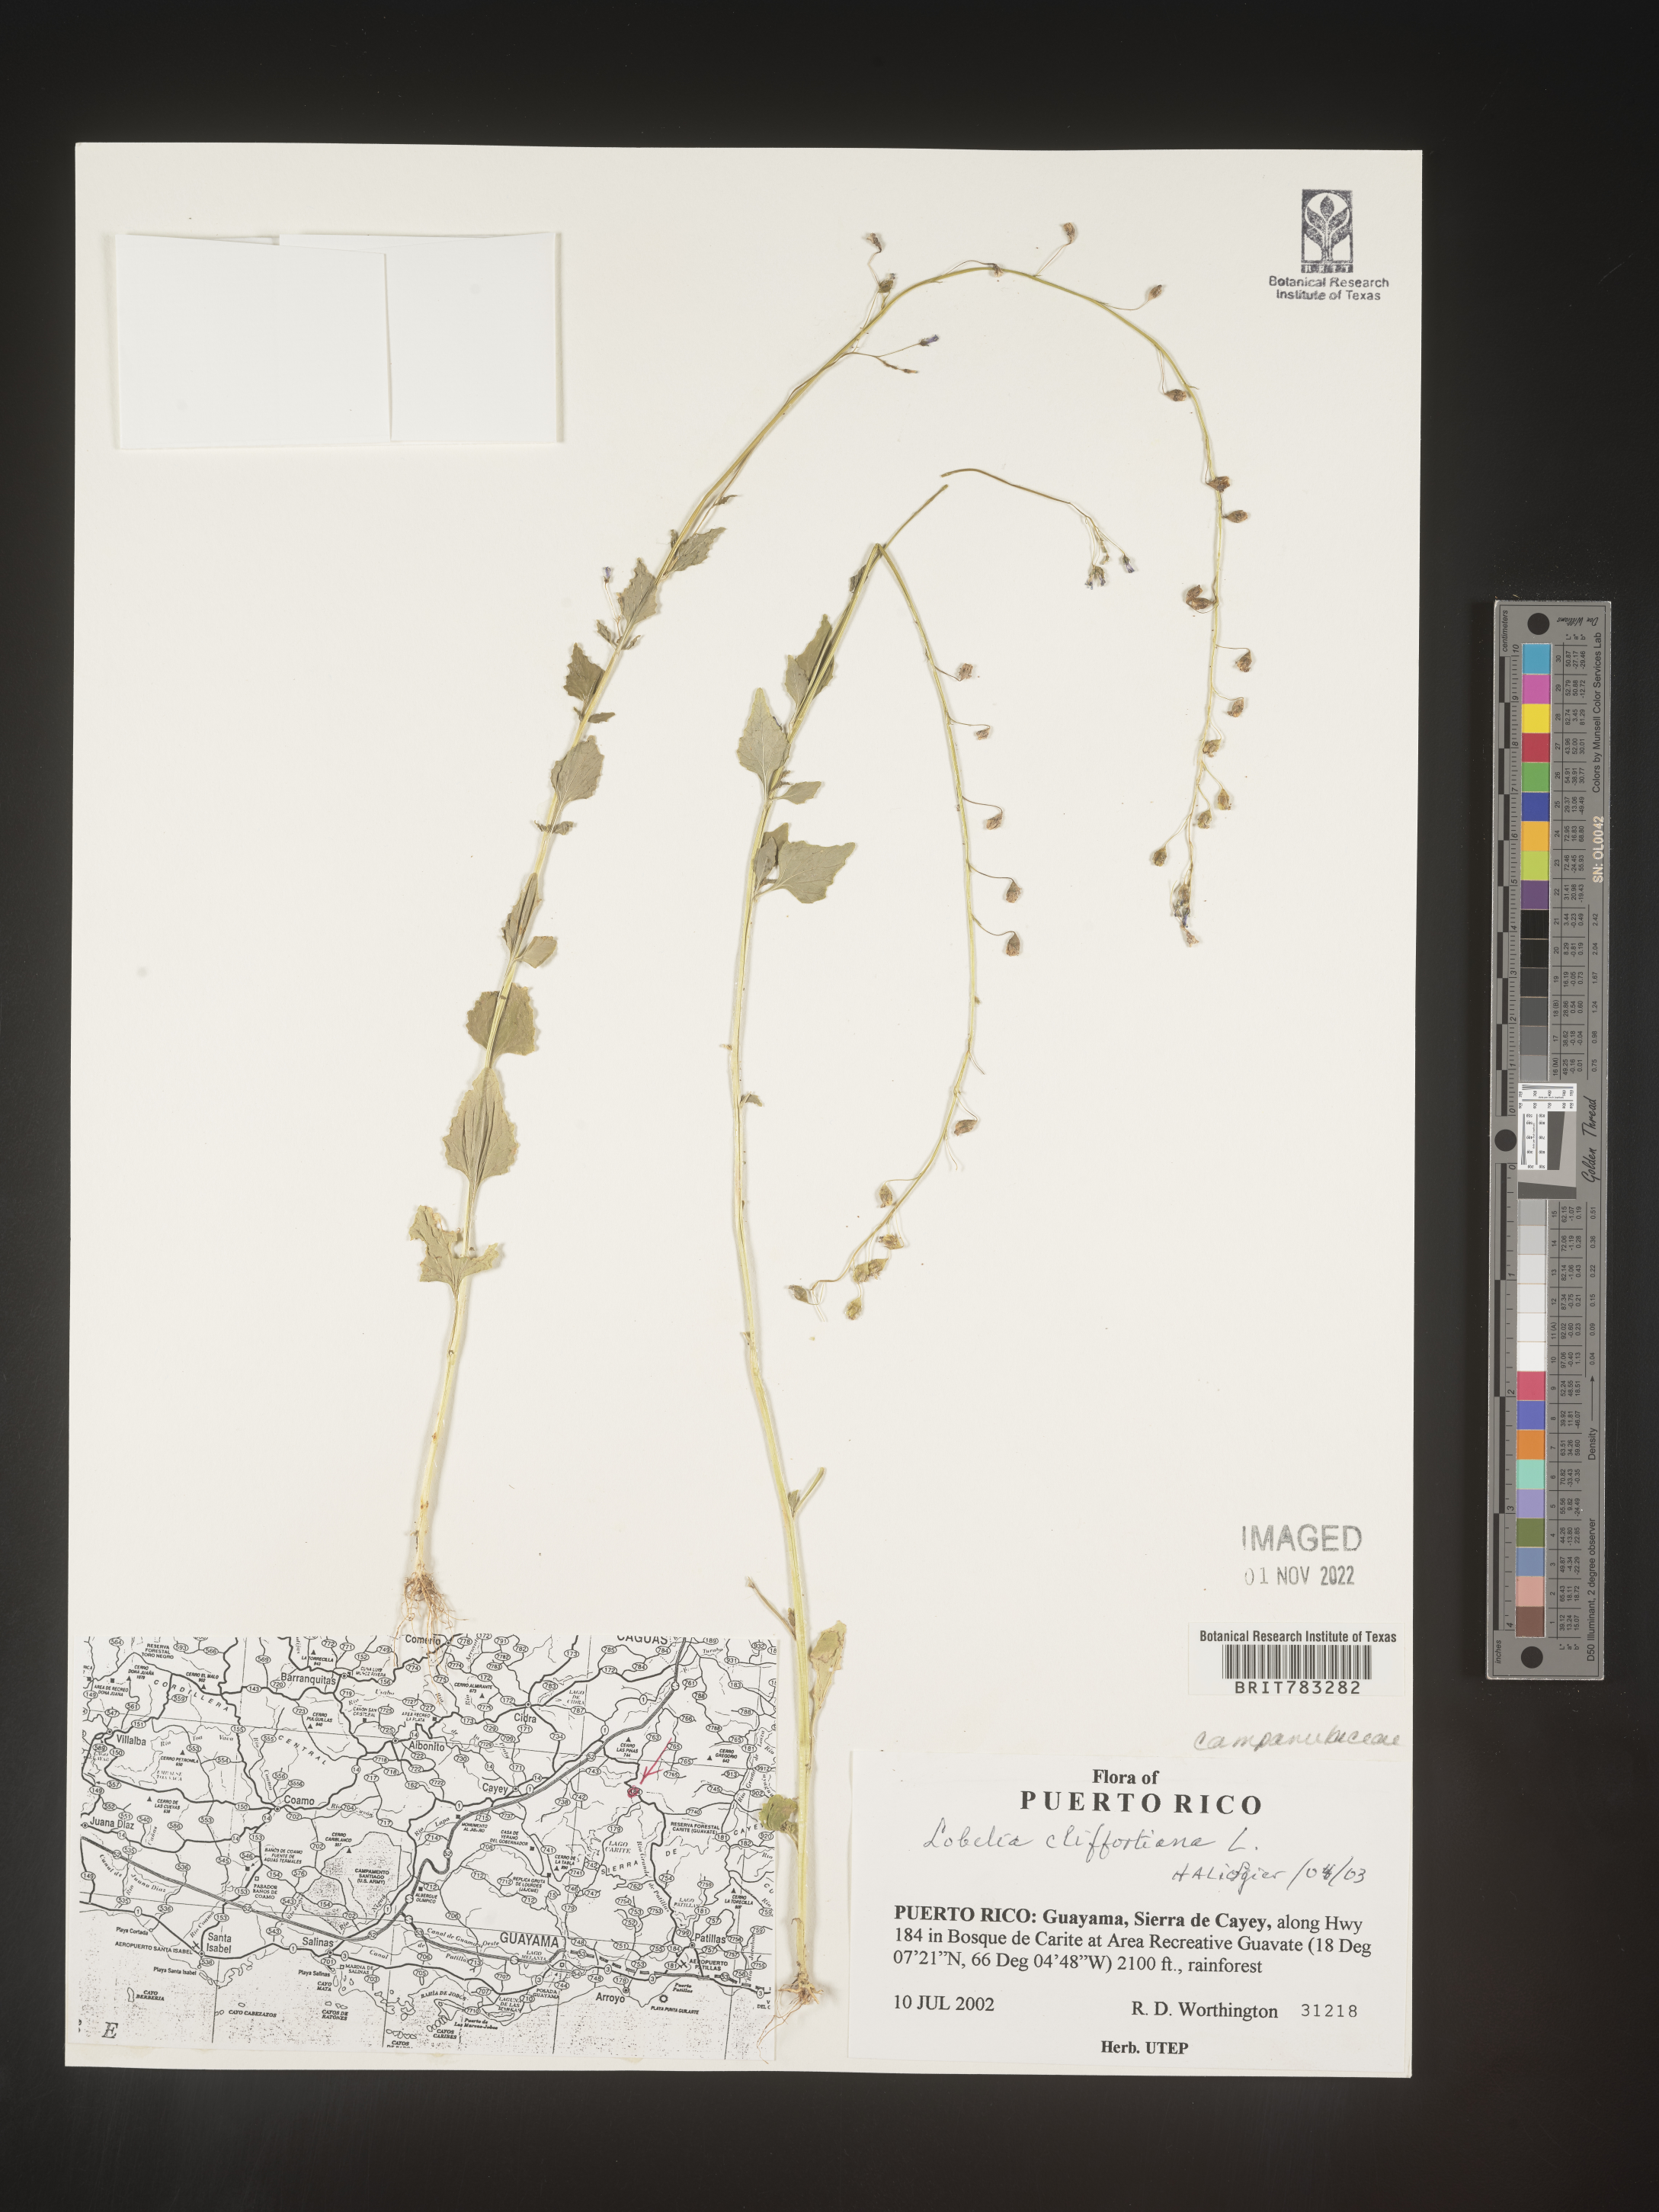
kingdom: Plantae
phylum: Tracheophyta
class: Magnoliopsida
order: Asterales
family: Campanulaceae
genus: Lobelia
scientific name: Lobelia
